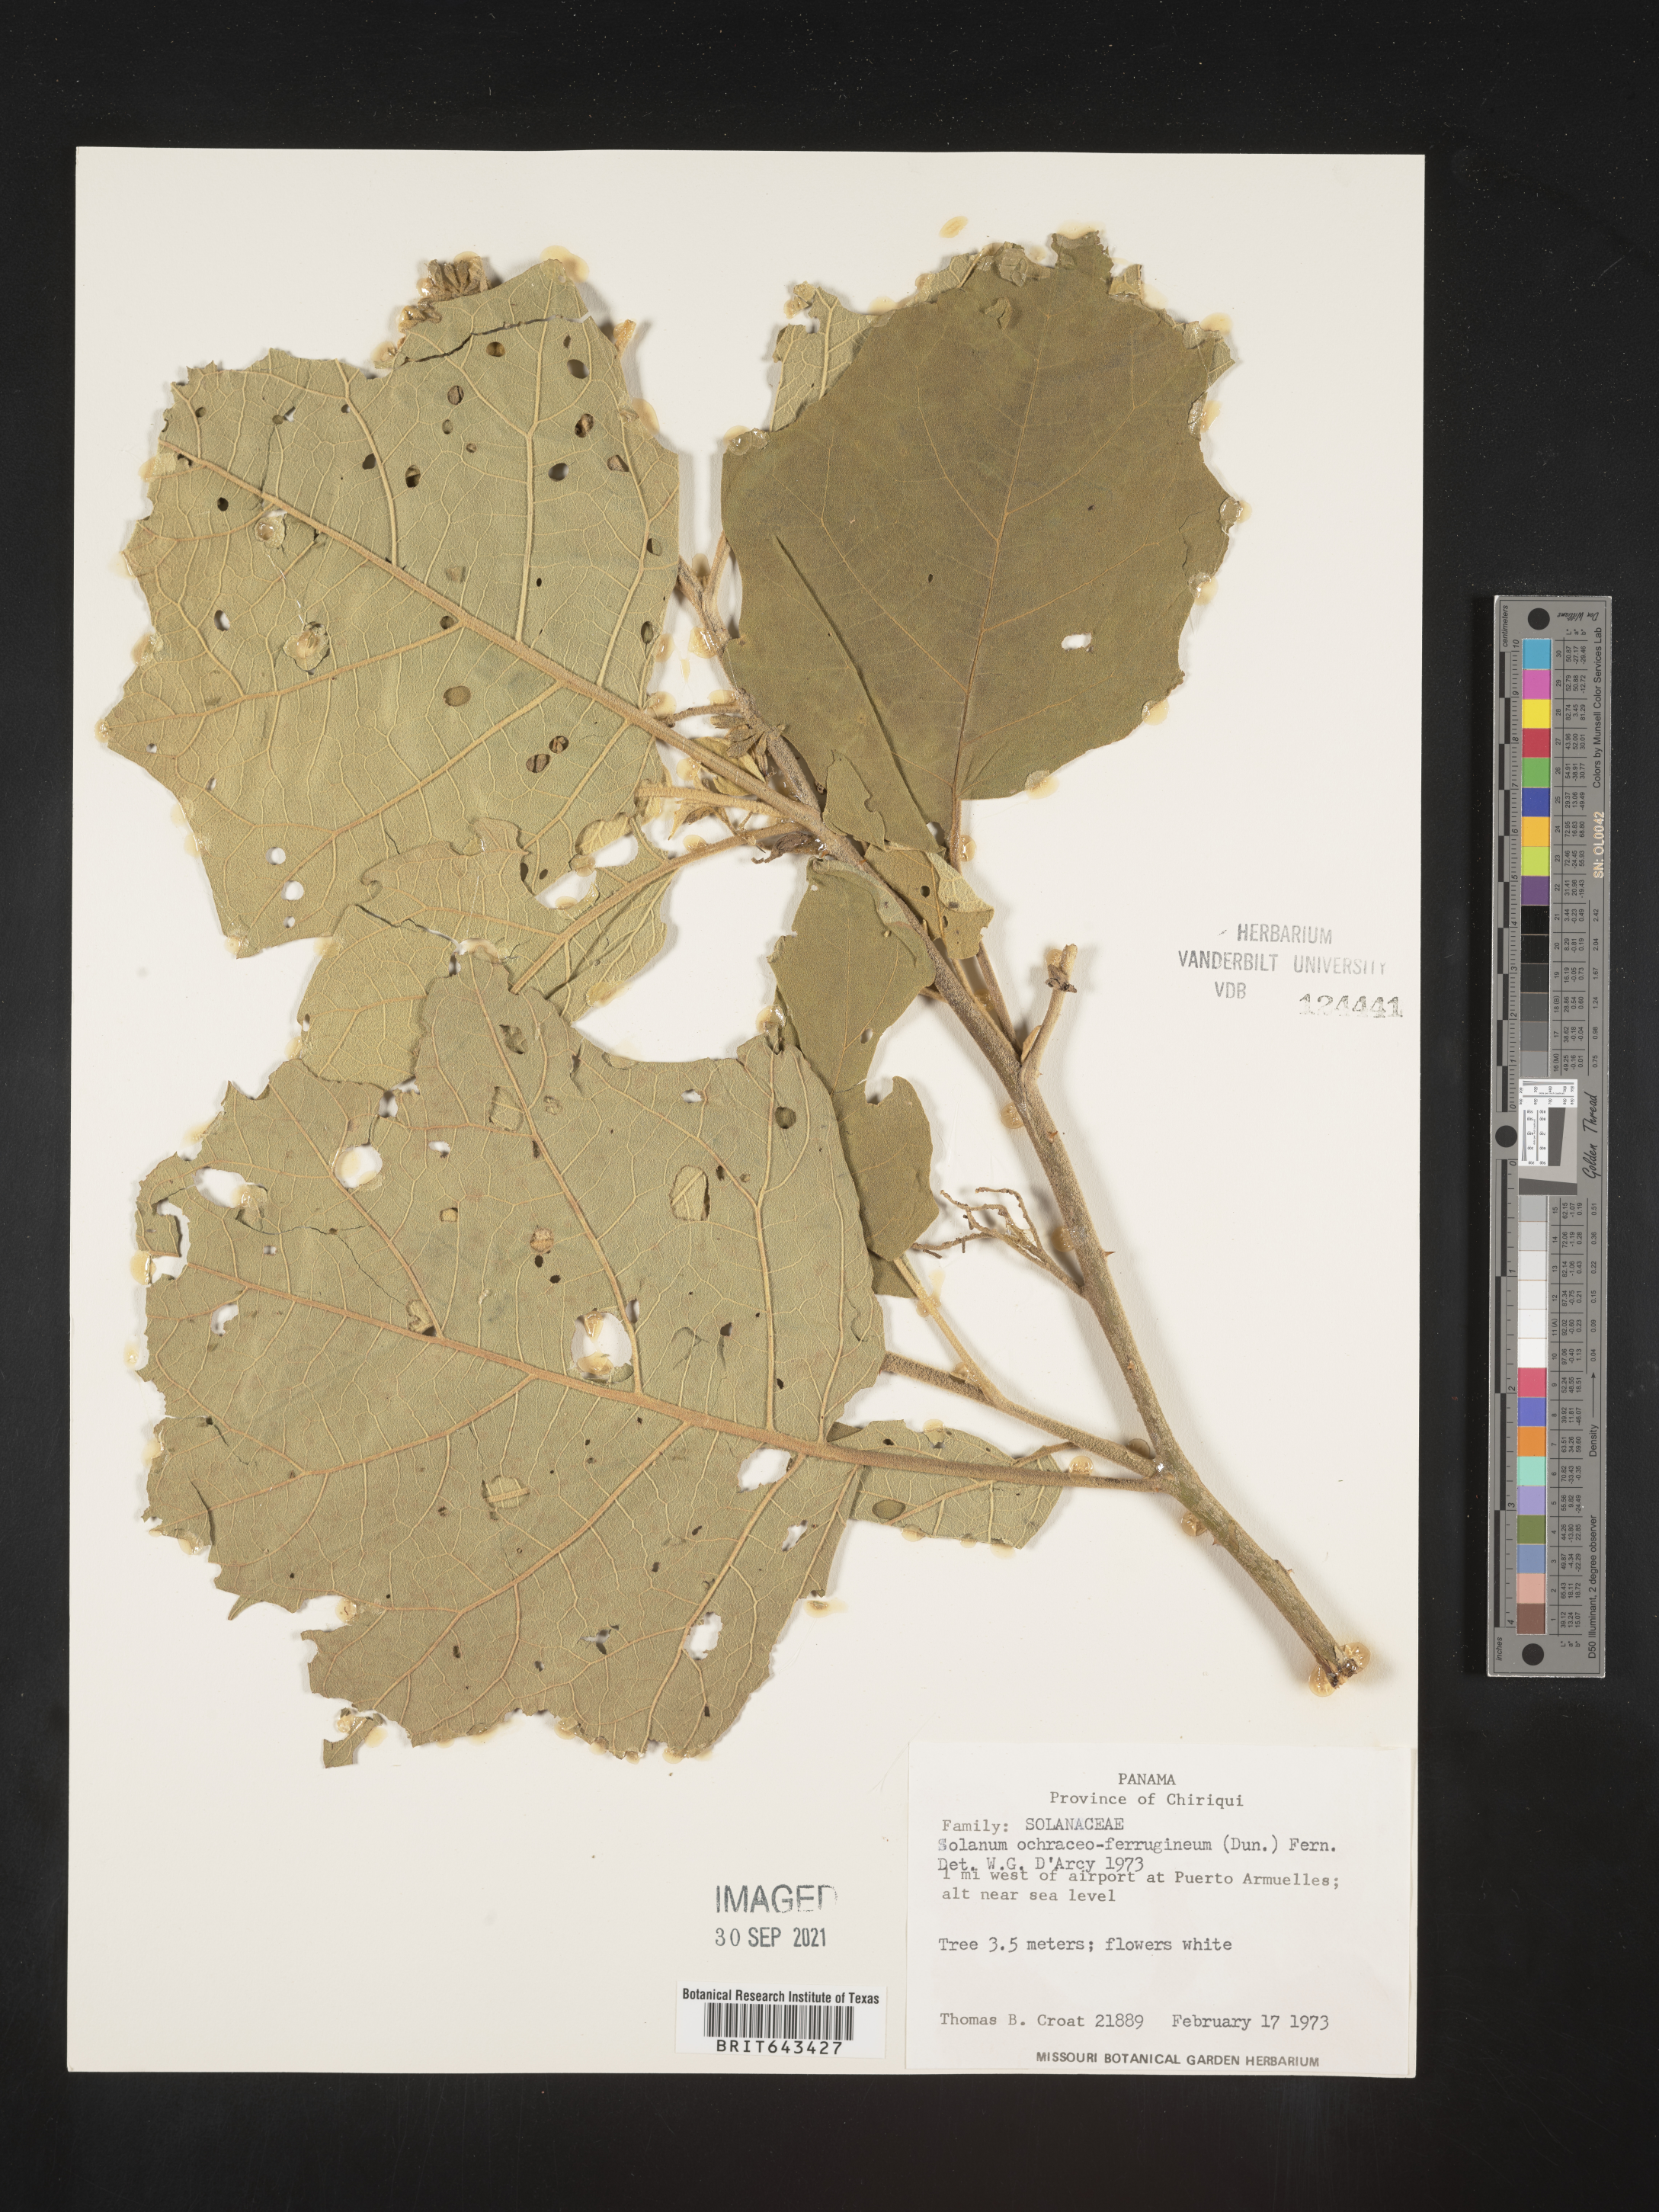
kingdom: Plantae
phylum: Tracheophyta
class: Magnoliopsida
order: Solanales
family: Solanaceae
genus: Solanum
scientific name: Solanum
